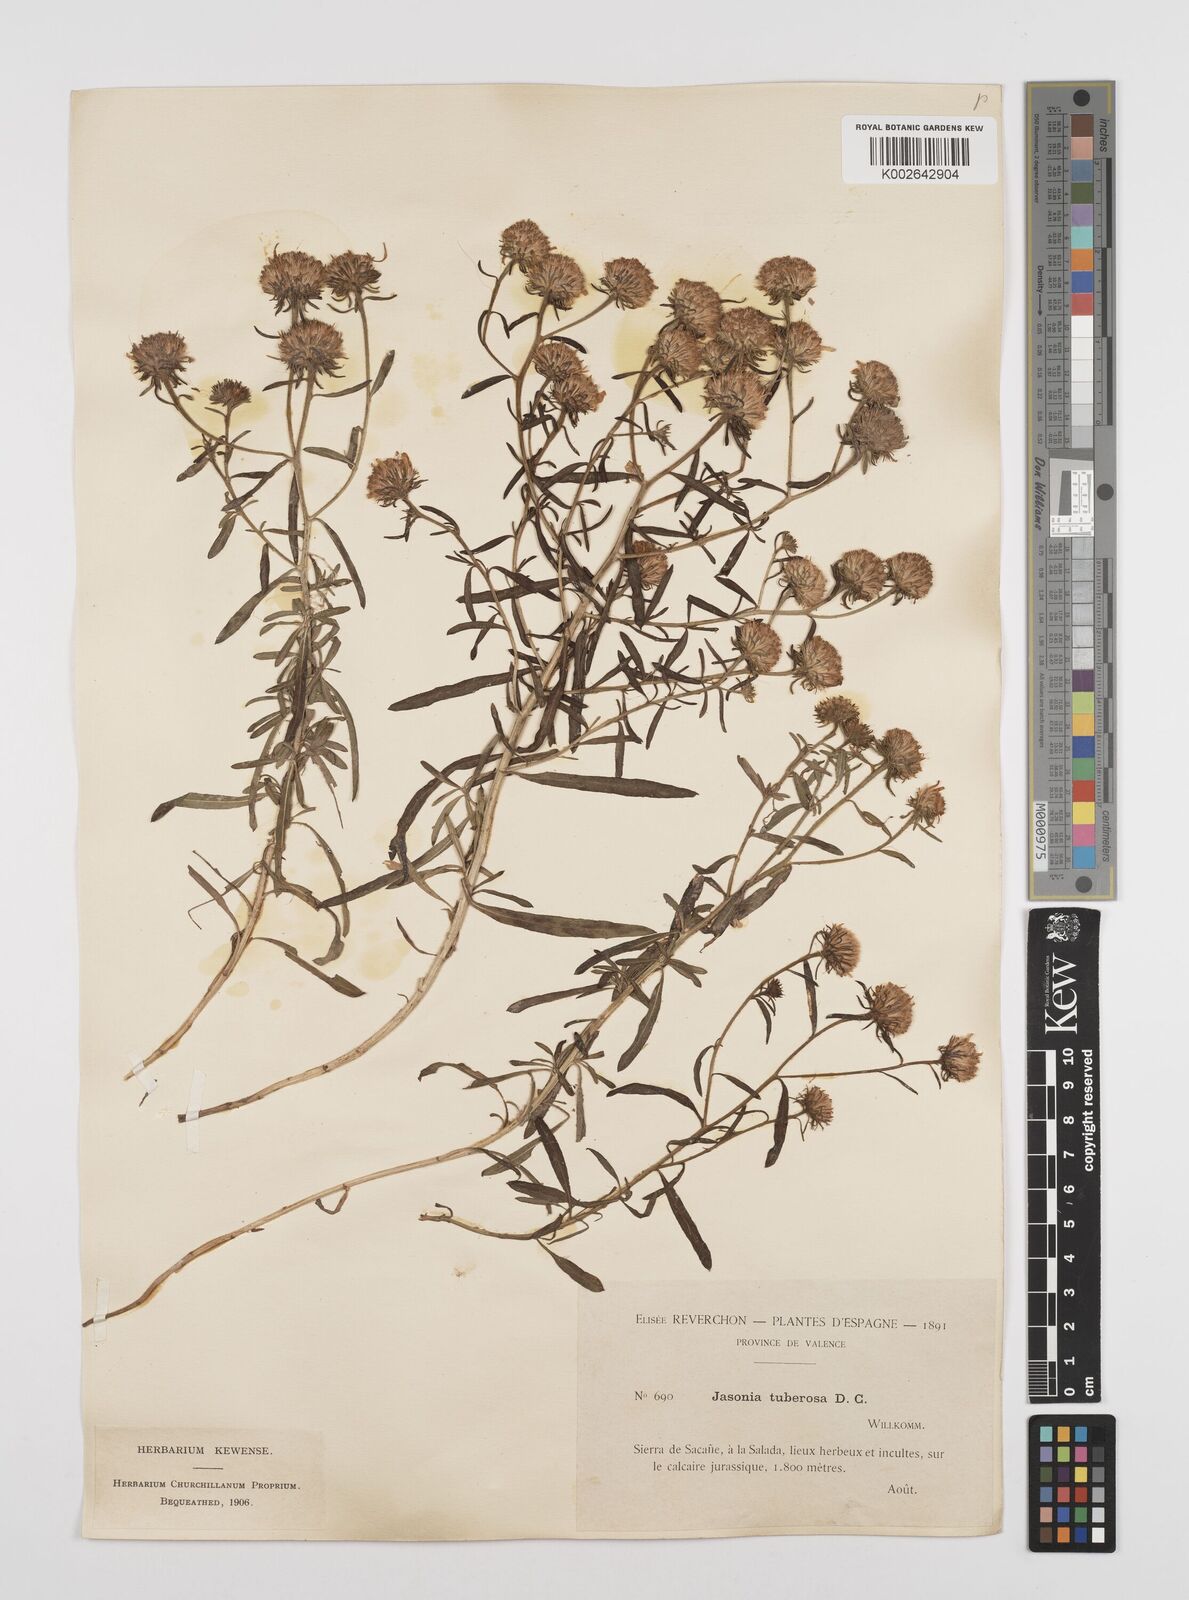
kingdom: Plantae
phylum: Tracheophyta
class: Magnoliopsida
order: Asterales
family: Asteraceae
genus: Jasonia
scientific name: Jasonia tuberosa
